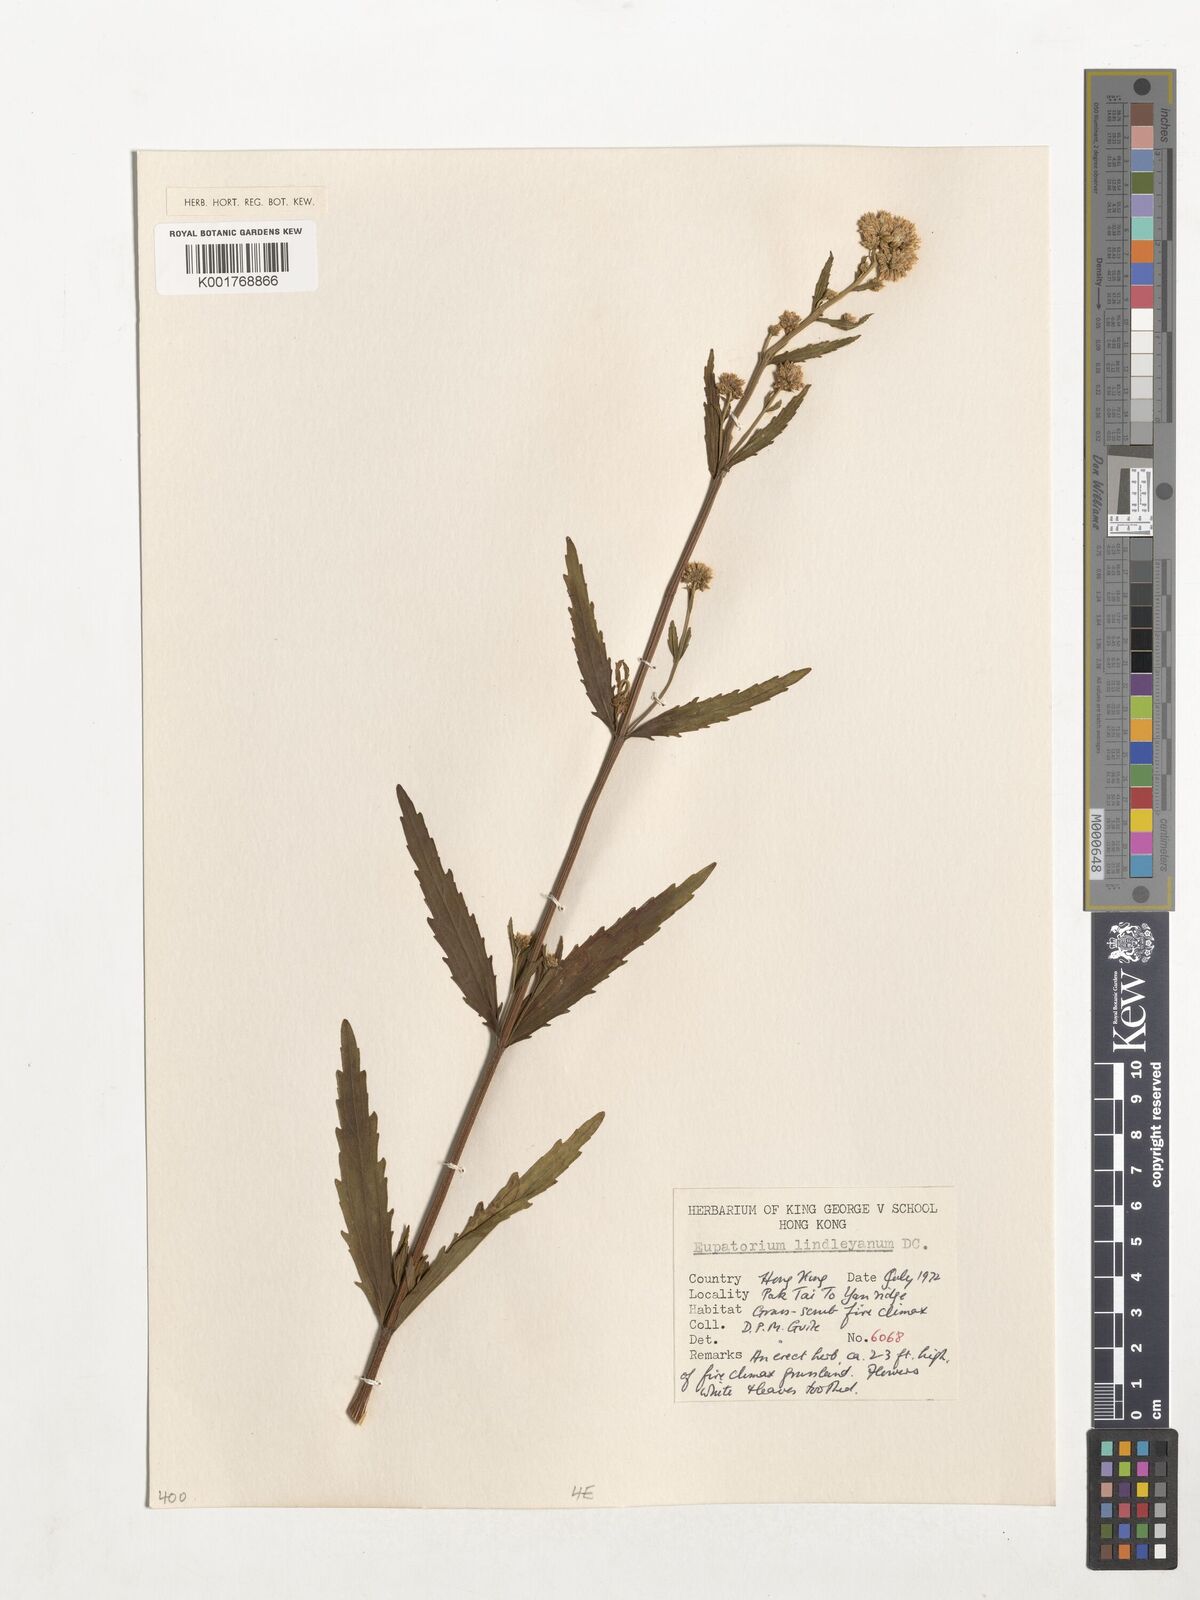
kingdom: Plantae
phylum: Tracheophyta
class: Magnoliopsida
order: Asterales
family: Asteraceae
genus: Eupatorium
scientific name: Eupatorium lindleyanum
